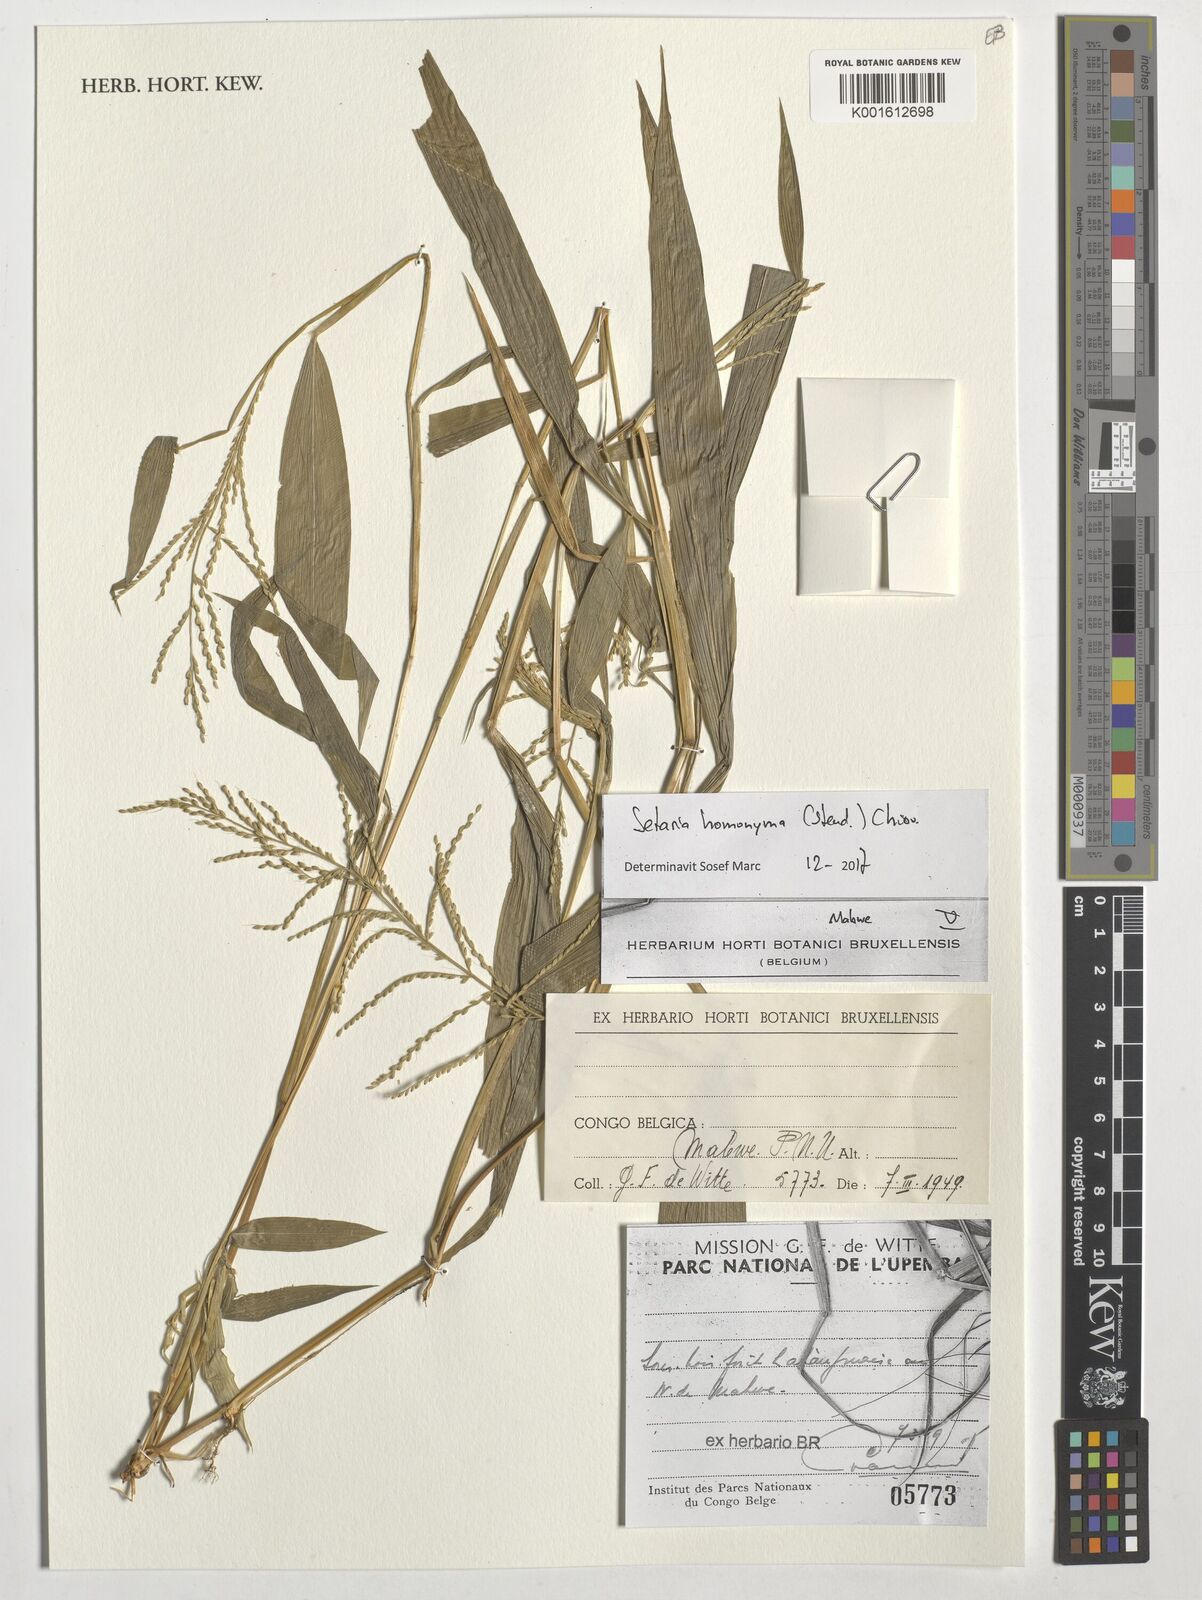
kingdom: Plantae
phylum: Tracheophyta
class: Liliopsida
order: Poales
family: Poaceae
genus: Setaria
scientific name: Setaria homonyma
